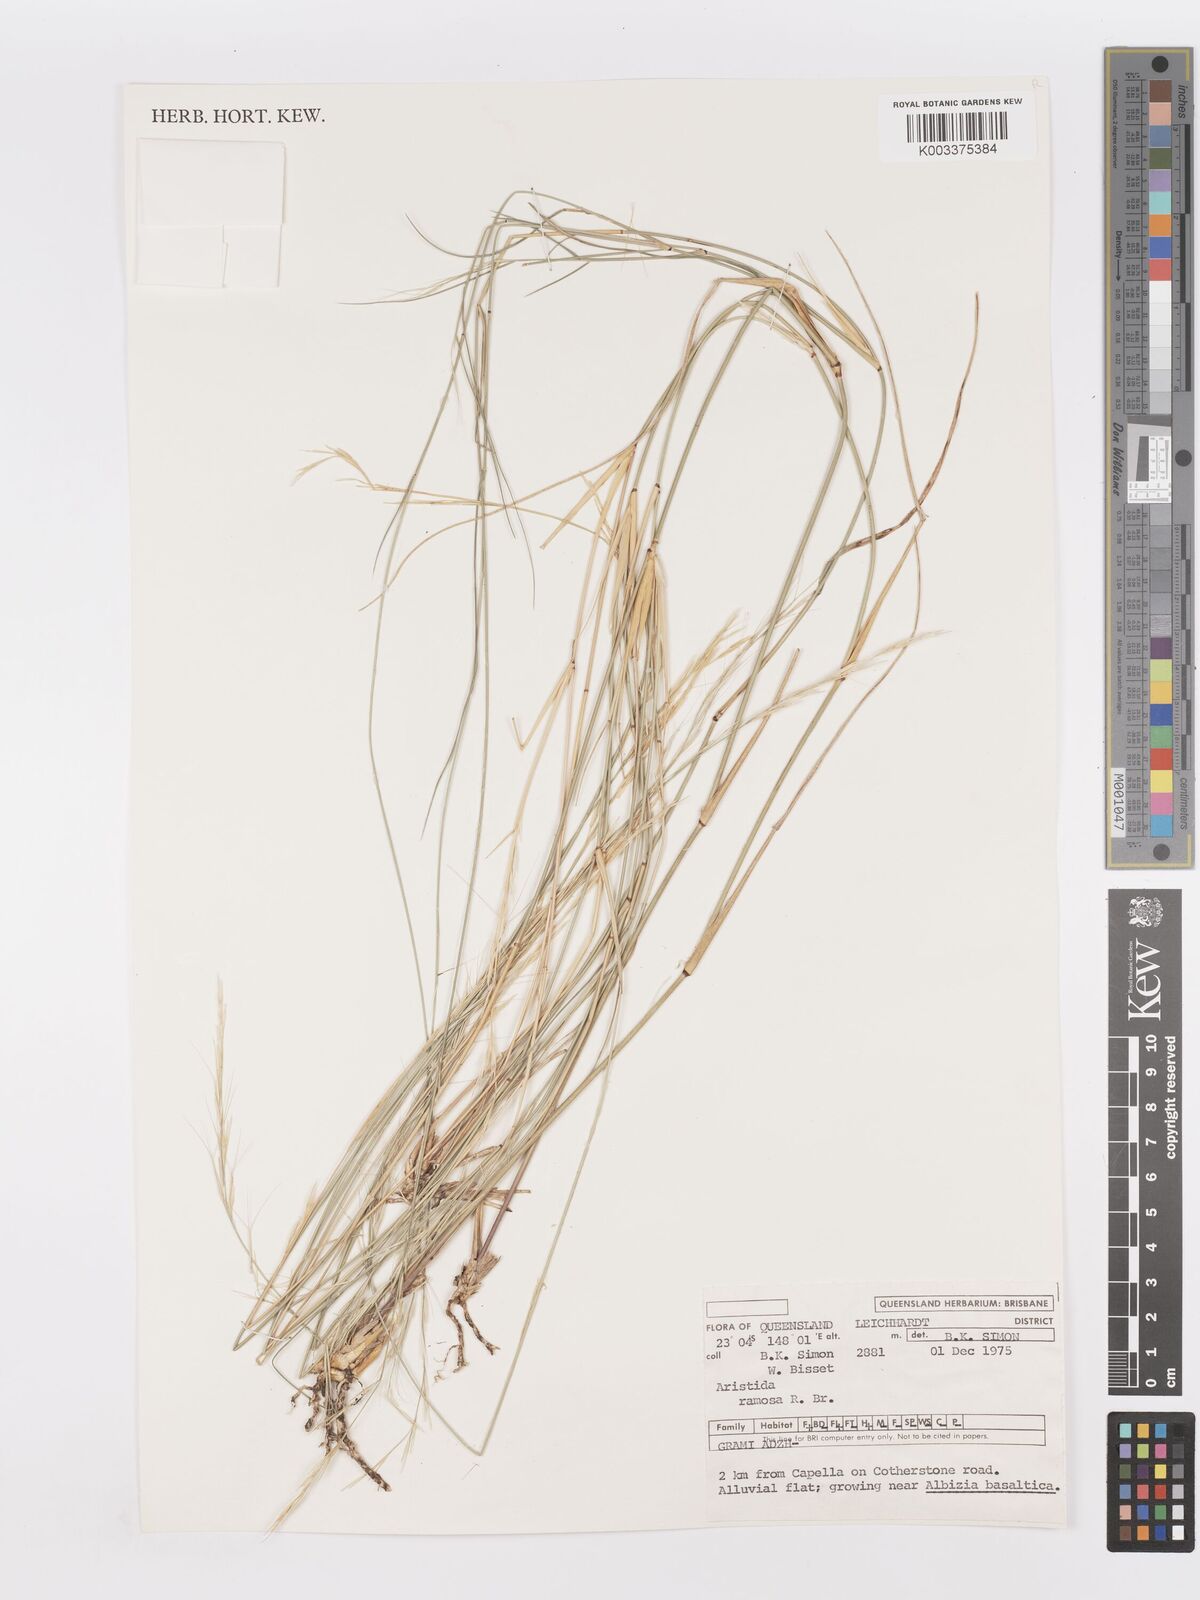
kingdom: Plantae
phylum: Tracheophyta
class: Liliopsida
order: Poales
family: Poaceae
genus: Aristida
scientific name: Aristida ramosa
